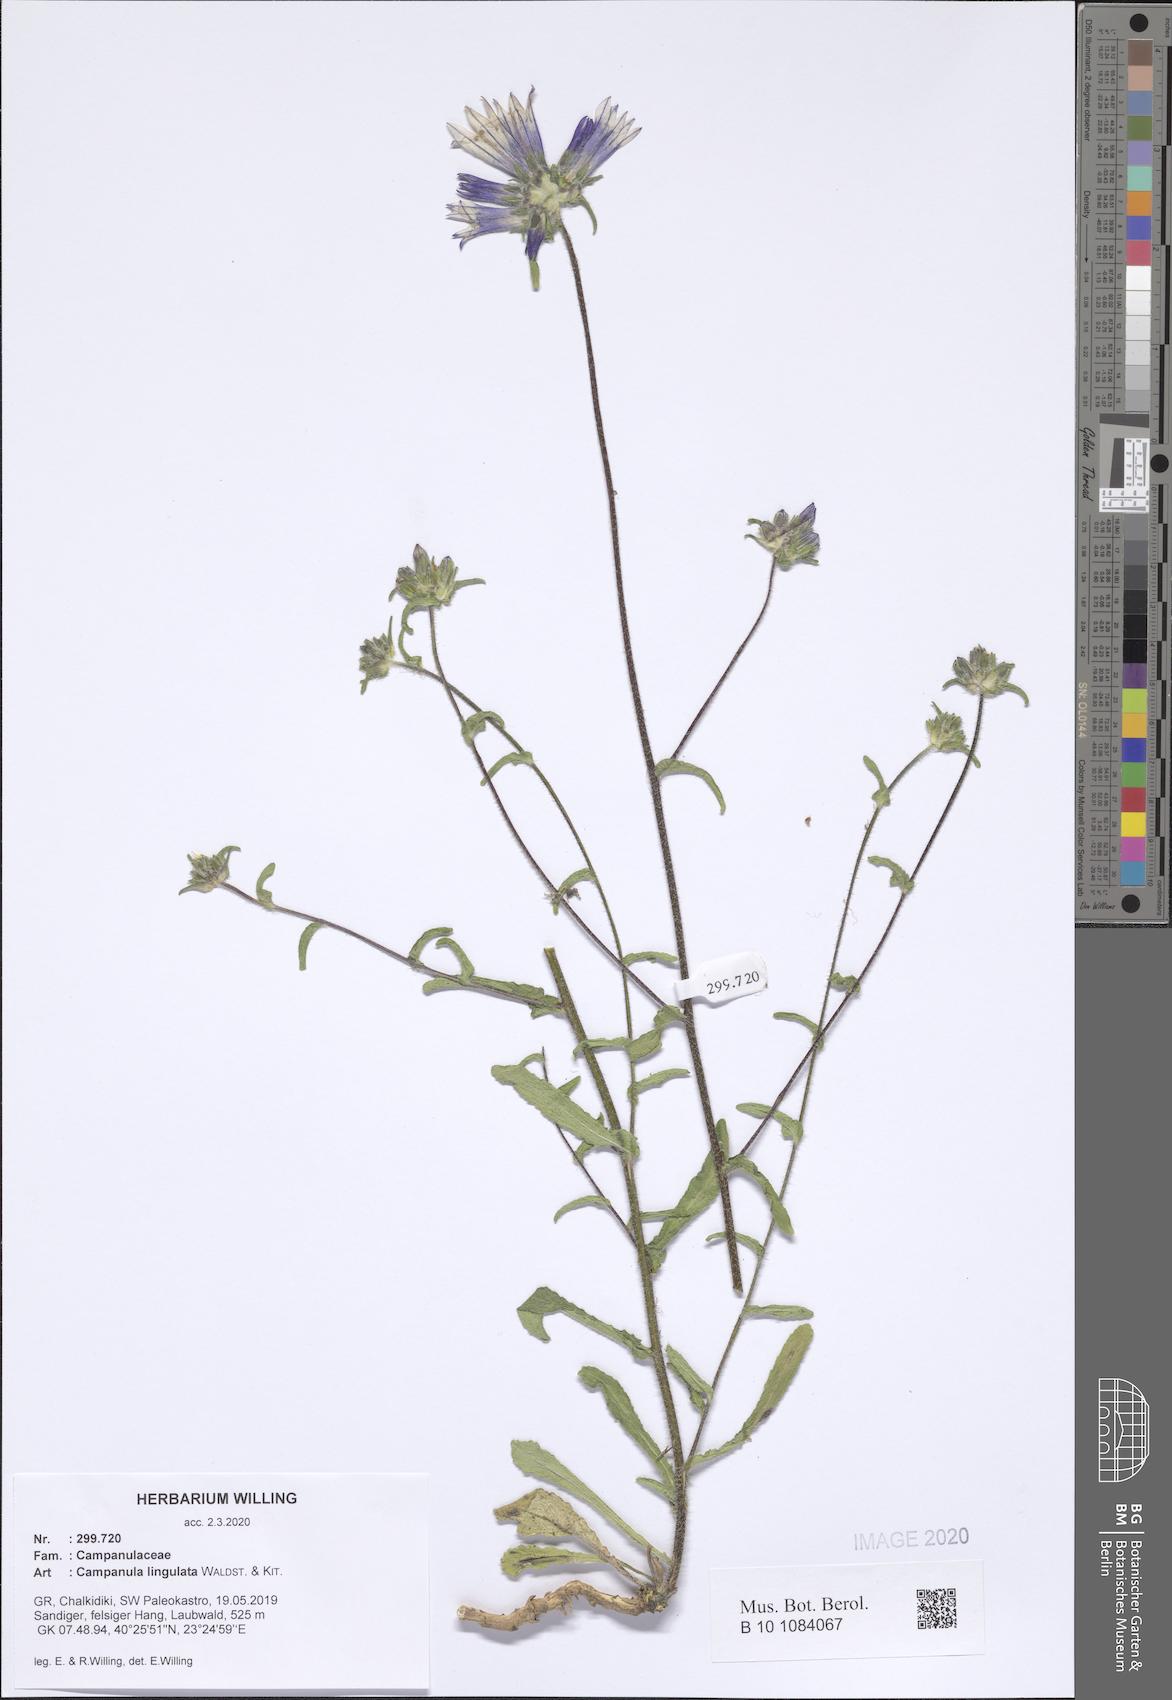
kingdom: Plantae
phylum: Tracheophyta
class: Magnoliopsida
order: Asterales
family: Campanulaceae
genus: Campanula
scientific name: Campanula lingulata
